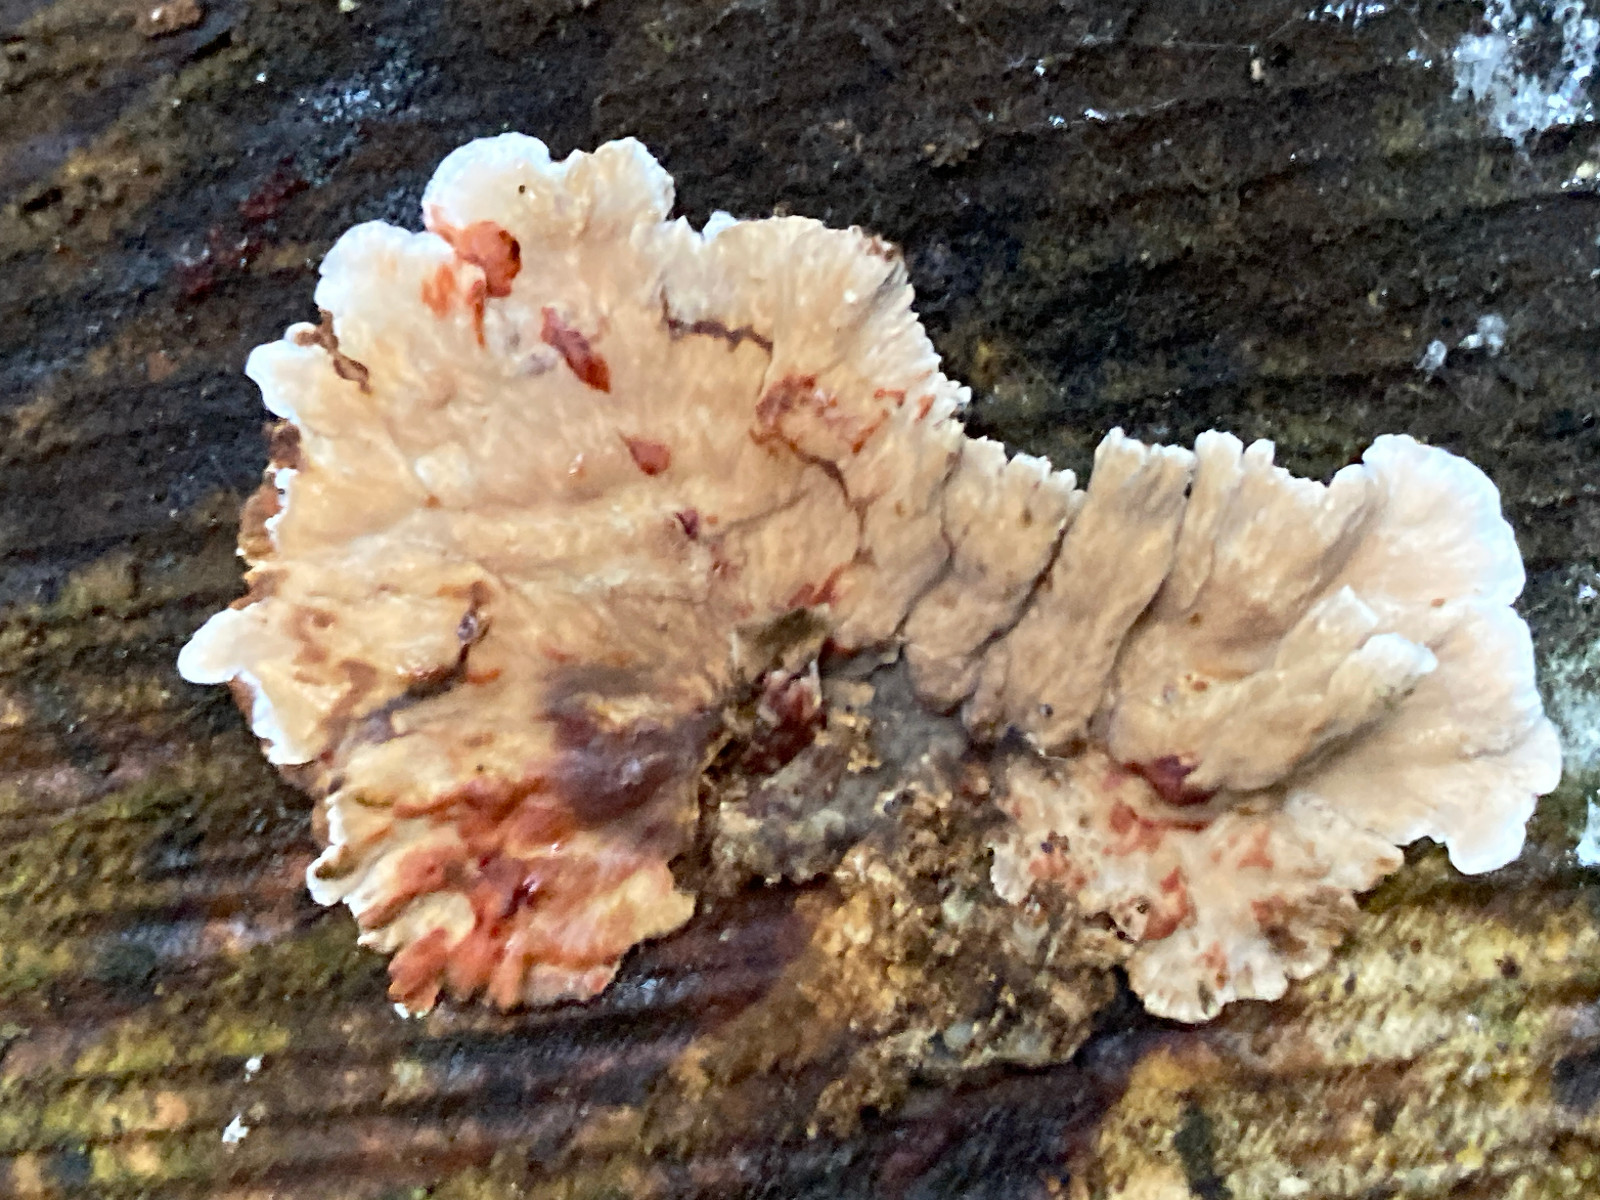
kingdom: Fungi
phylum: Basidiomycota
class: Agaricomycetes
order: Russulales
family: Stereaceae
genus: Stereum
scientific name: Stereum sanguinolentum
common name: blødende lædersvamp
